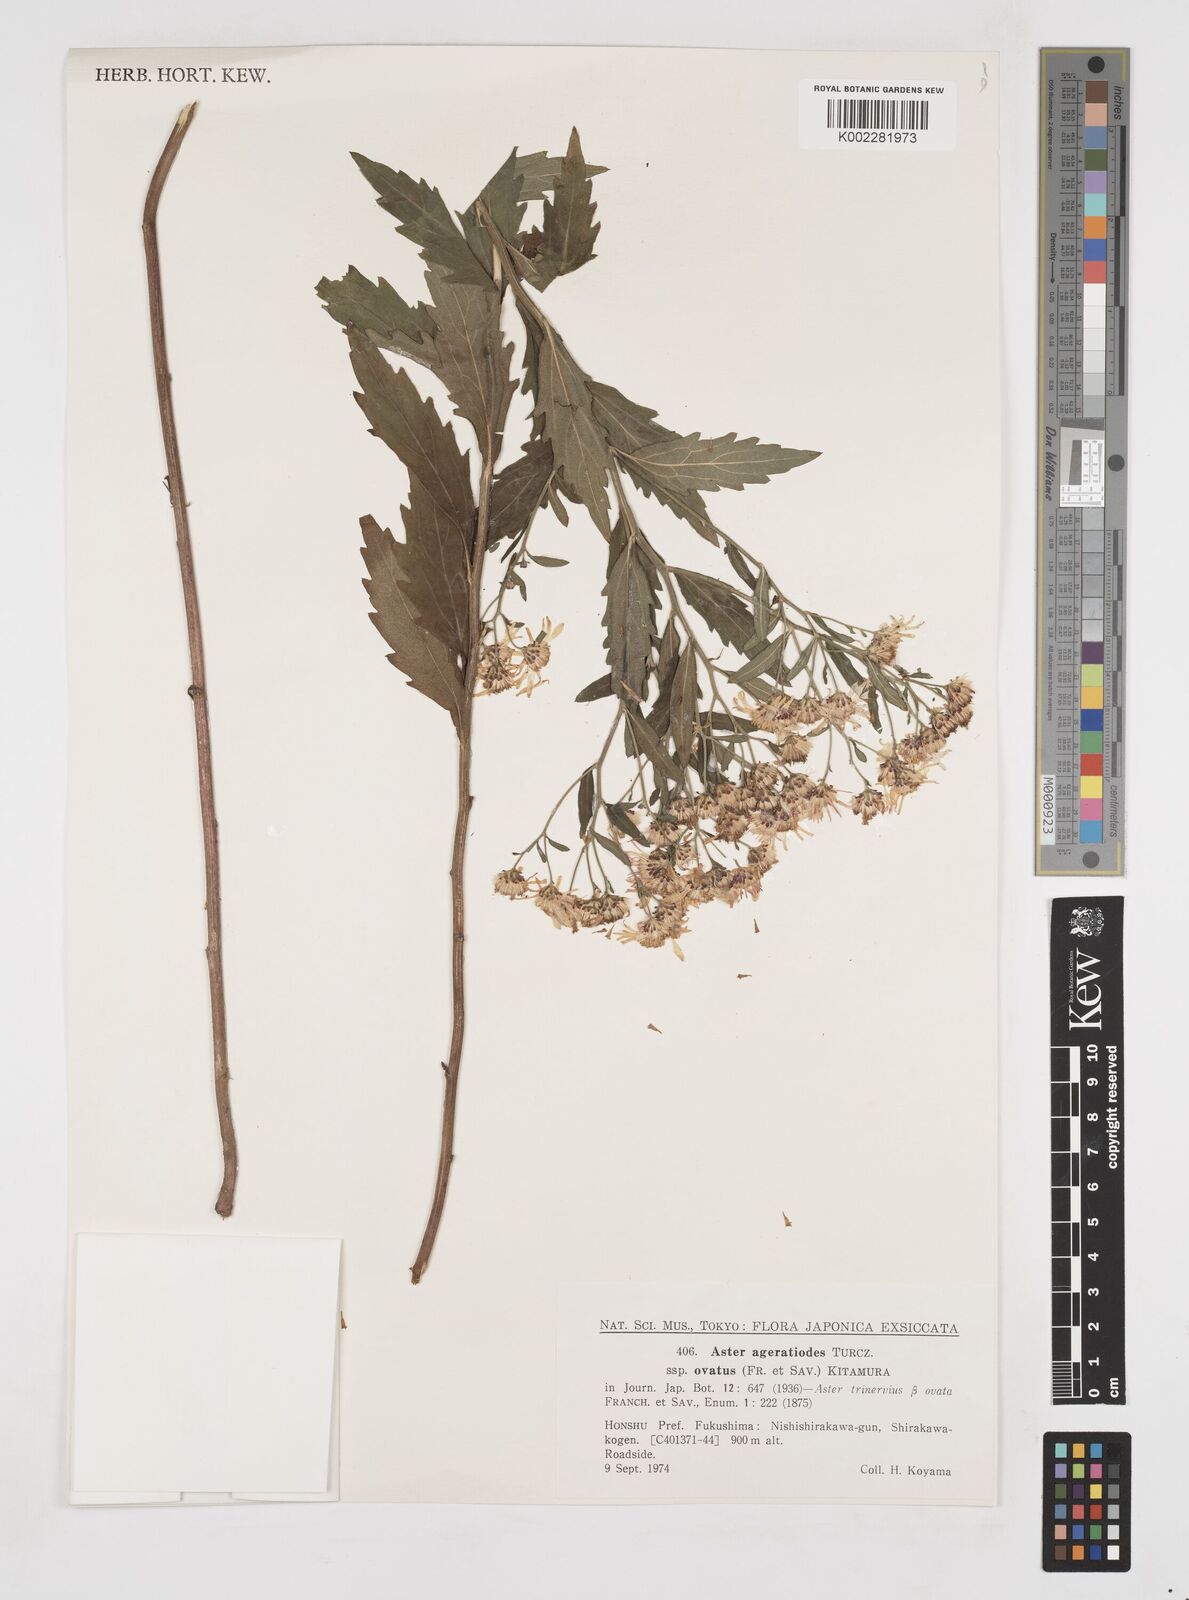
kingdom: Plantae
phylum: Tracheophyta
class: Magnoliopsida
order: Asterales
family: Asteraceae
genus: Aster
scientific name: Aster trinervius
